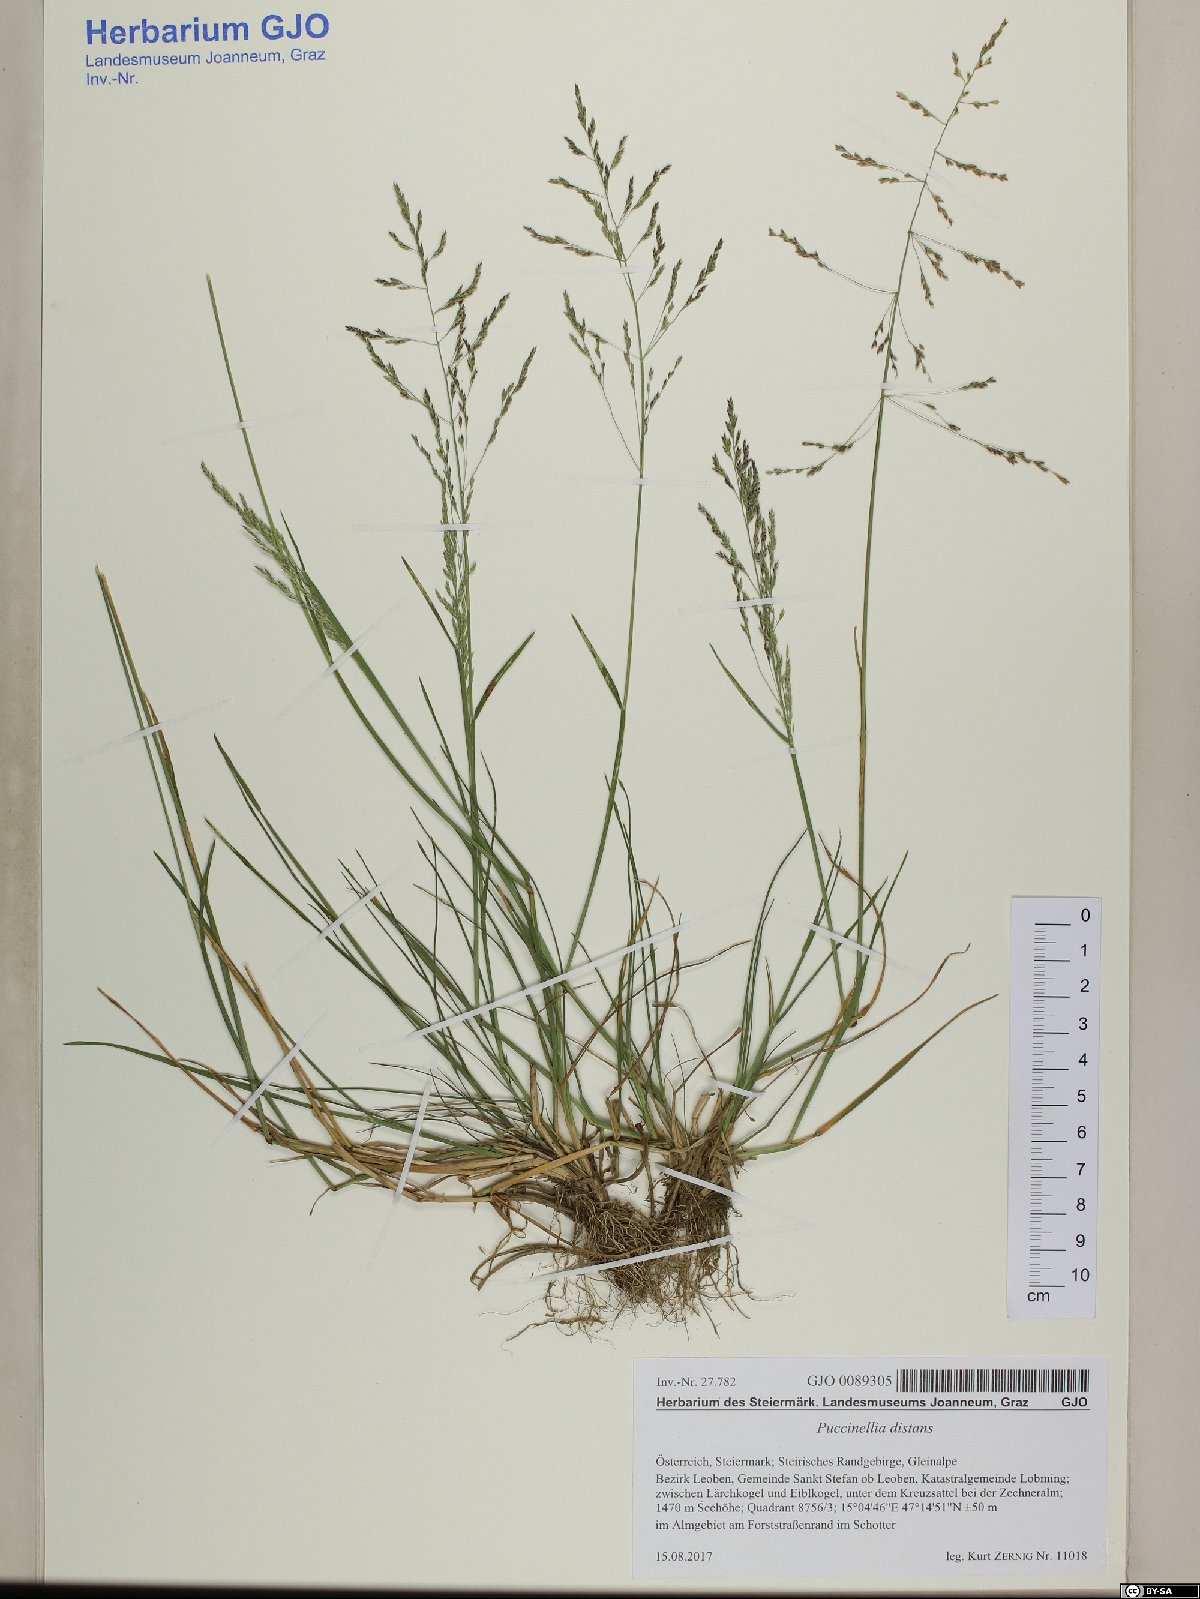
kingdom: Plantae
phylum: Tracheophyta
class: Liliopsida
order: Poales
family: Poaceae
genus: Puccinellia
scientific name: Puccinellia distans
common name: Weeping alkaligrass
